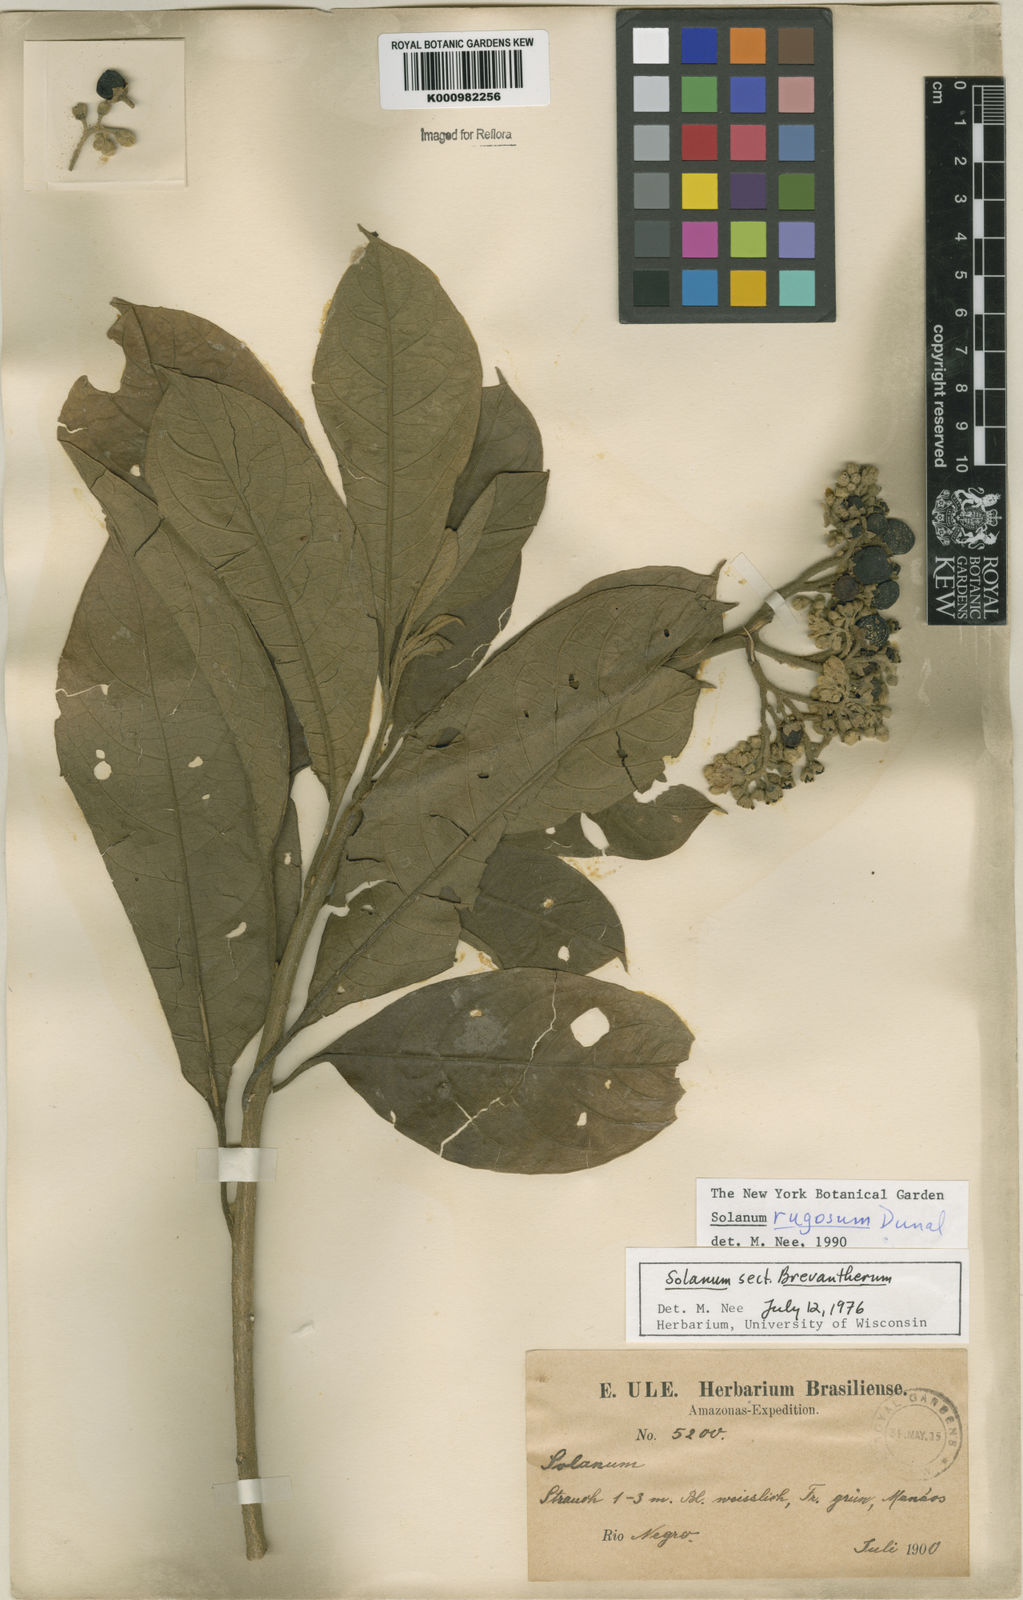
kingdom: Plantae
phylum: Tracheophyta
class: Magnoliopsida
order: Solanales
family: Solanaceae
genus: Solanum
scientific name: Solanum rugosum
